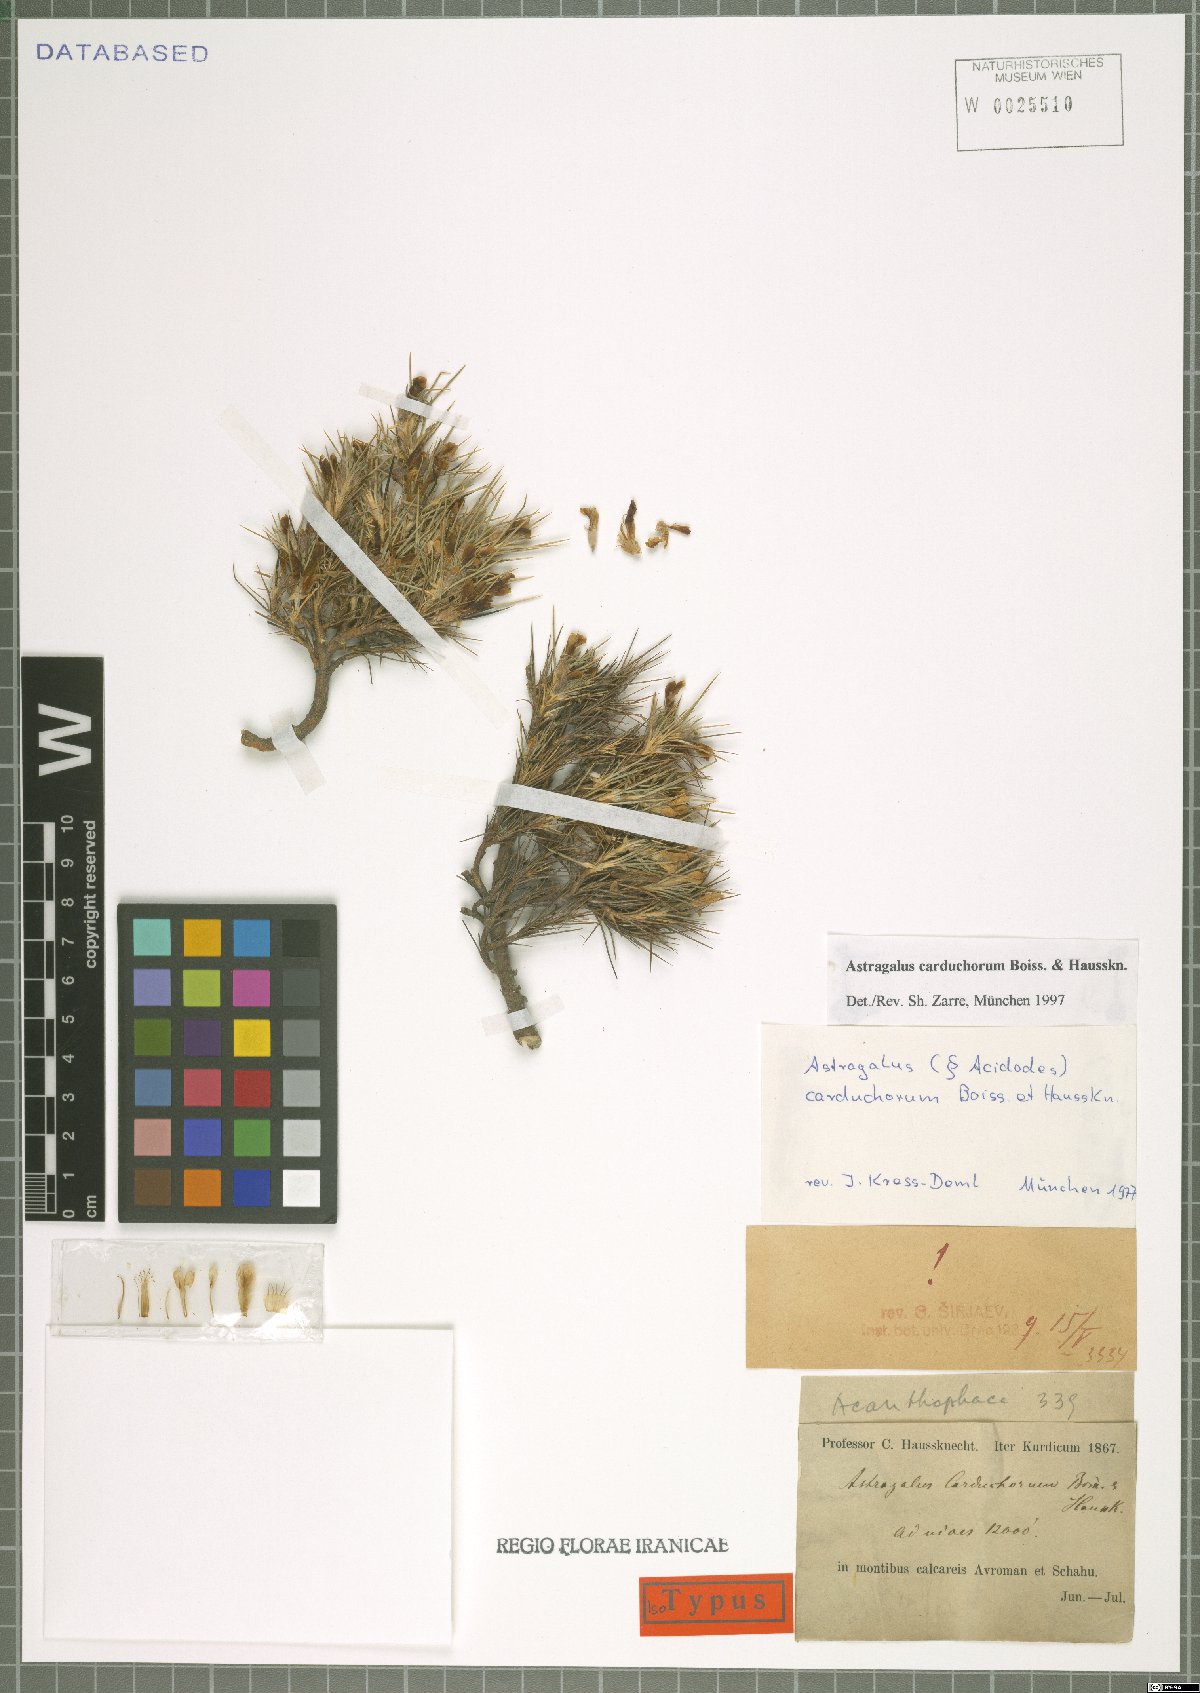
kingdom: Plantae
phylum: Tracheophyta
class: Magnoliopsida
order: Fabales
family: Fabaceae
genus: Astragalus
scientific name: Astragalus carduchorum
